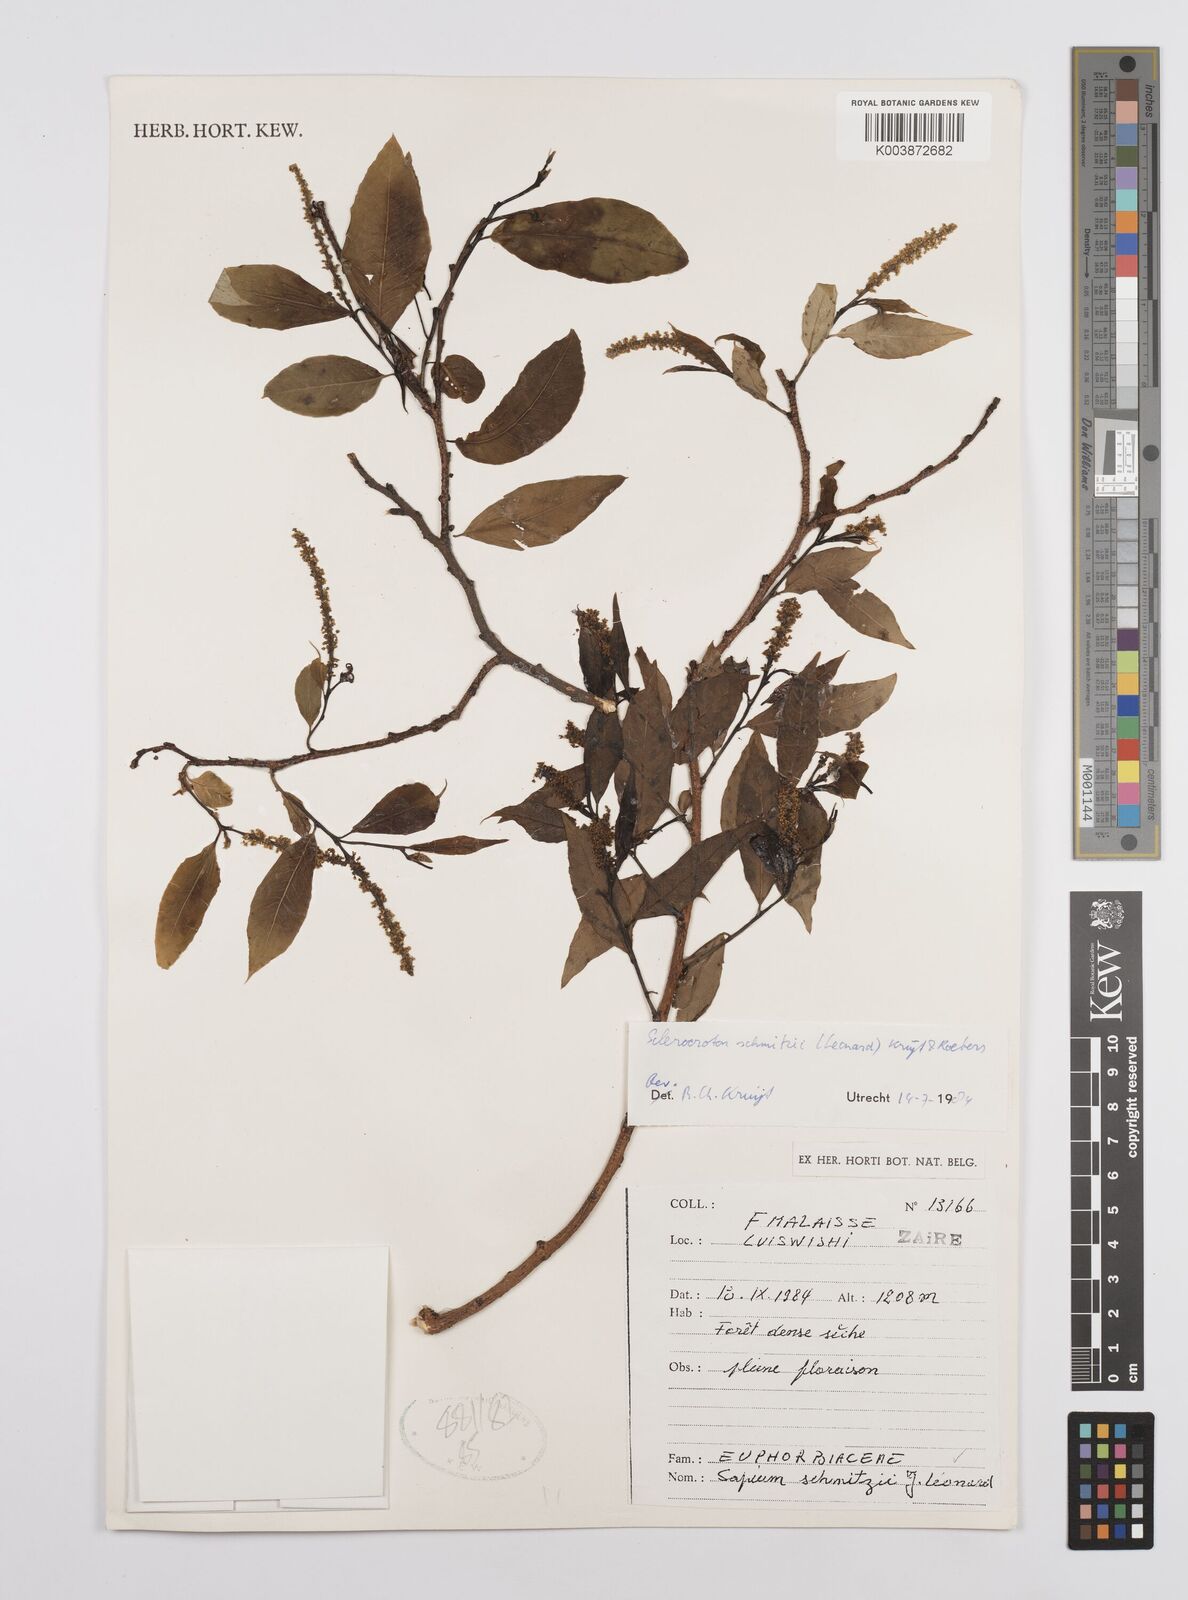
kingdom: Plantae
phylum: Tracheophyta
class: Magnoliopsida
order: Malpighiales
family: Euphorbiaceae
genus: Sclerocroton
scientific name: Sclerocroton schmitzii
